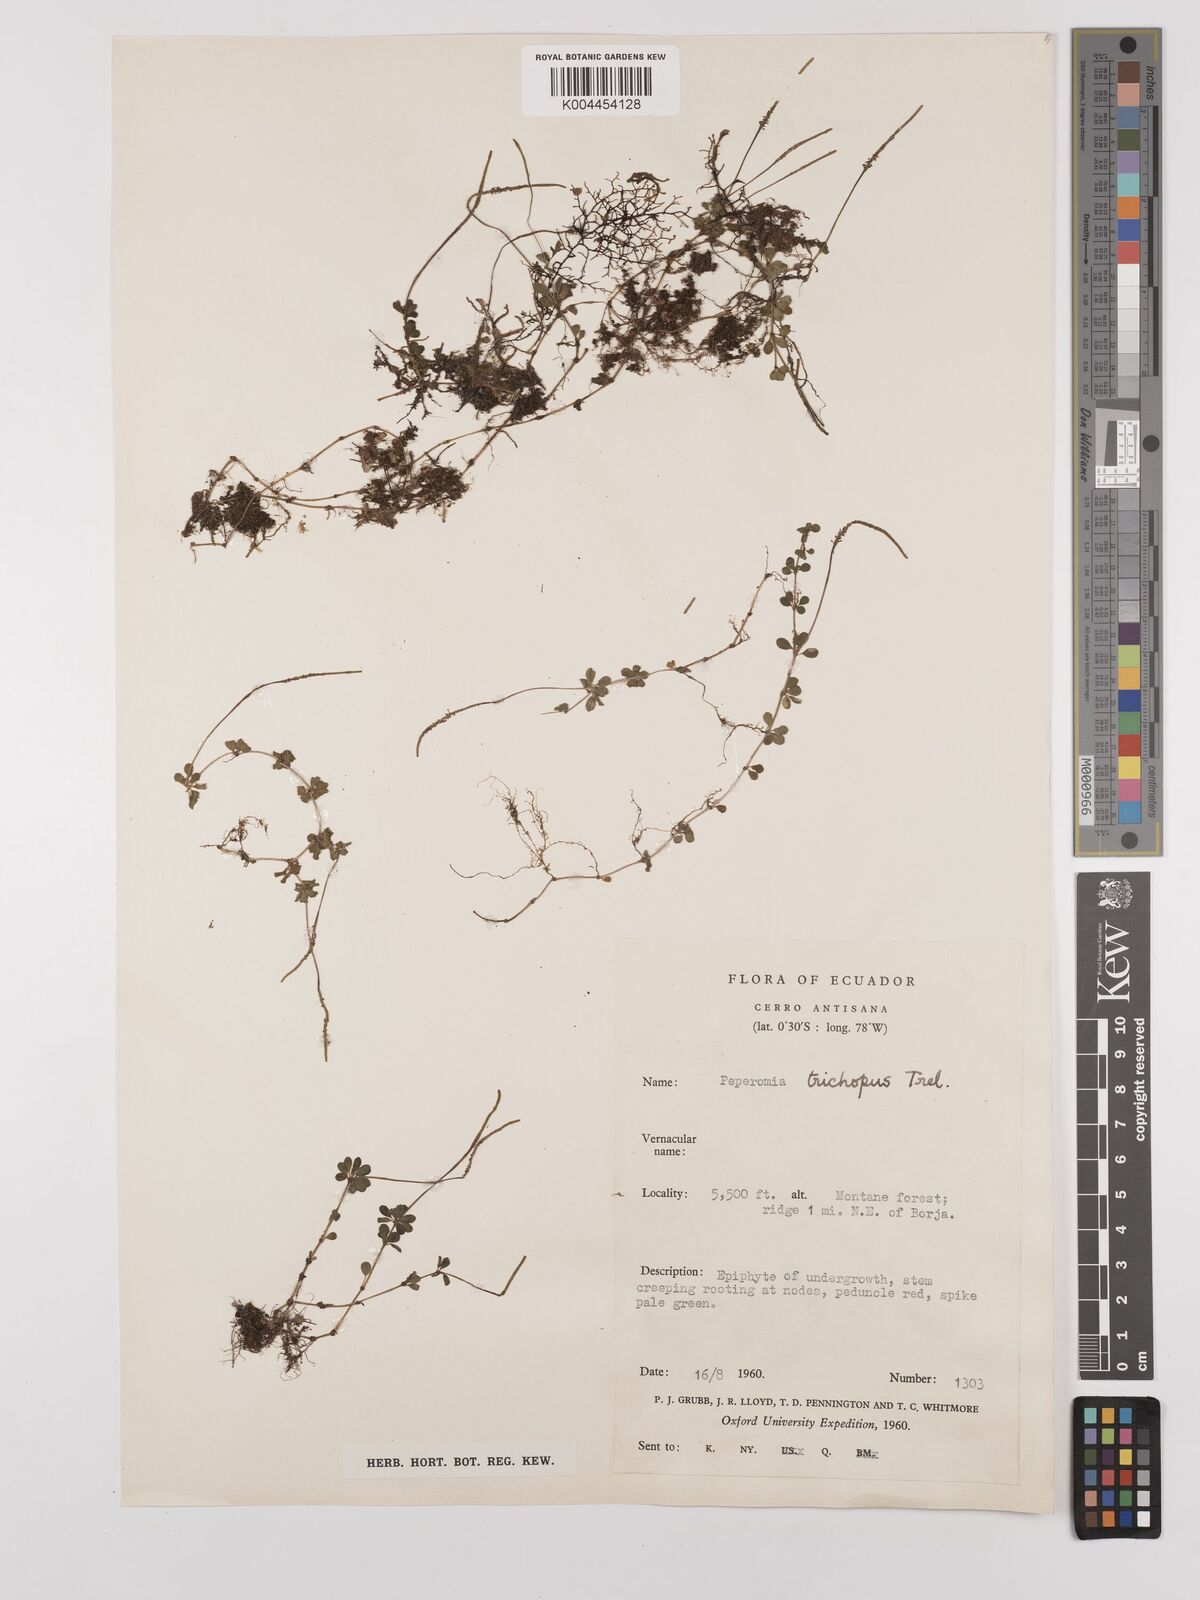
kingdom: Plantae
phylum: Tracheophyta
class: Magnoliopsida
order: Piperales
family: Piperaceae
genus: Peperomia
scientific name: Peperomia trichopus
